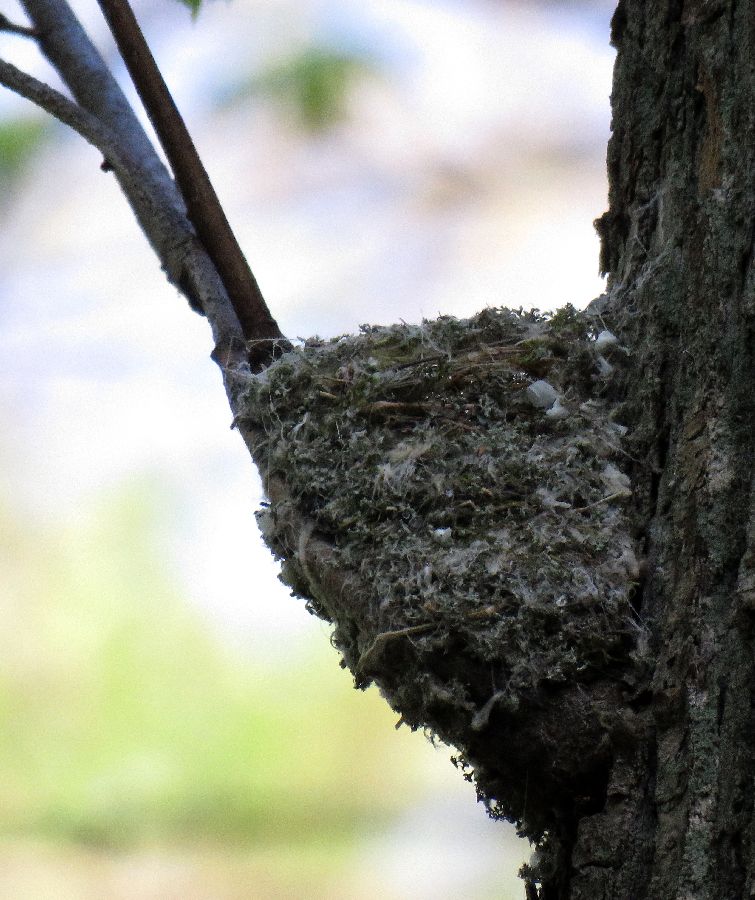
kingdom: Animalia
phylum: Chordata
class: Aves
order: Passeriformes
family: Fringillidae
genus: Fringilla
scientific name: Fringilla coelebs
